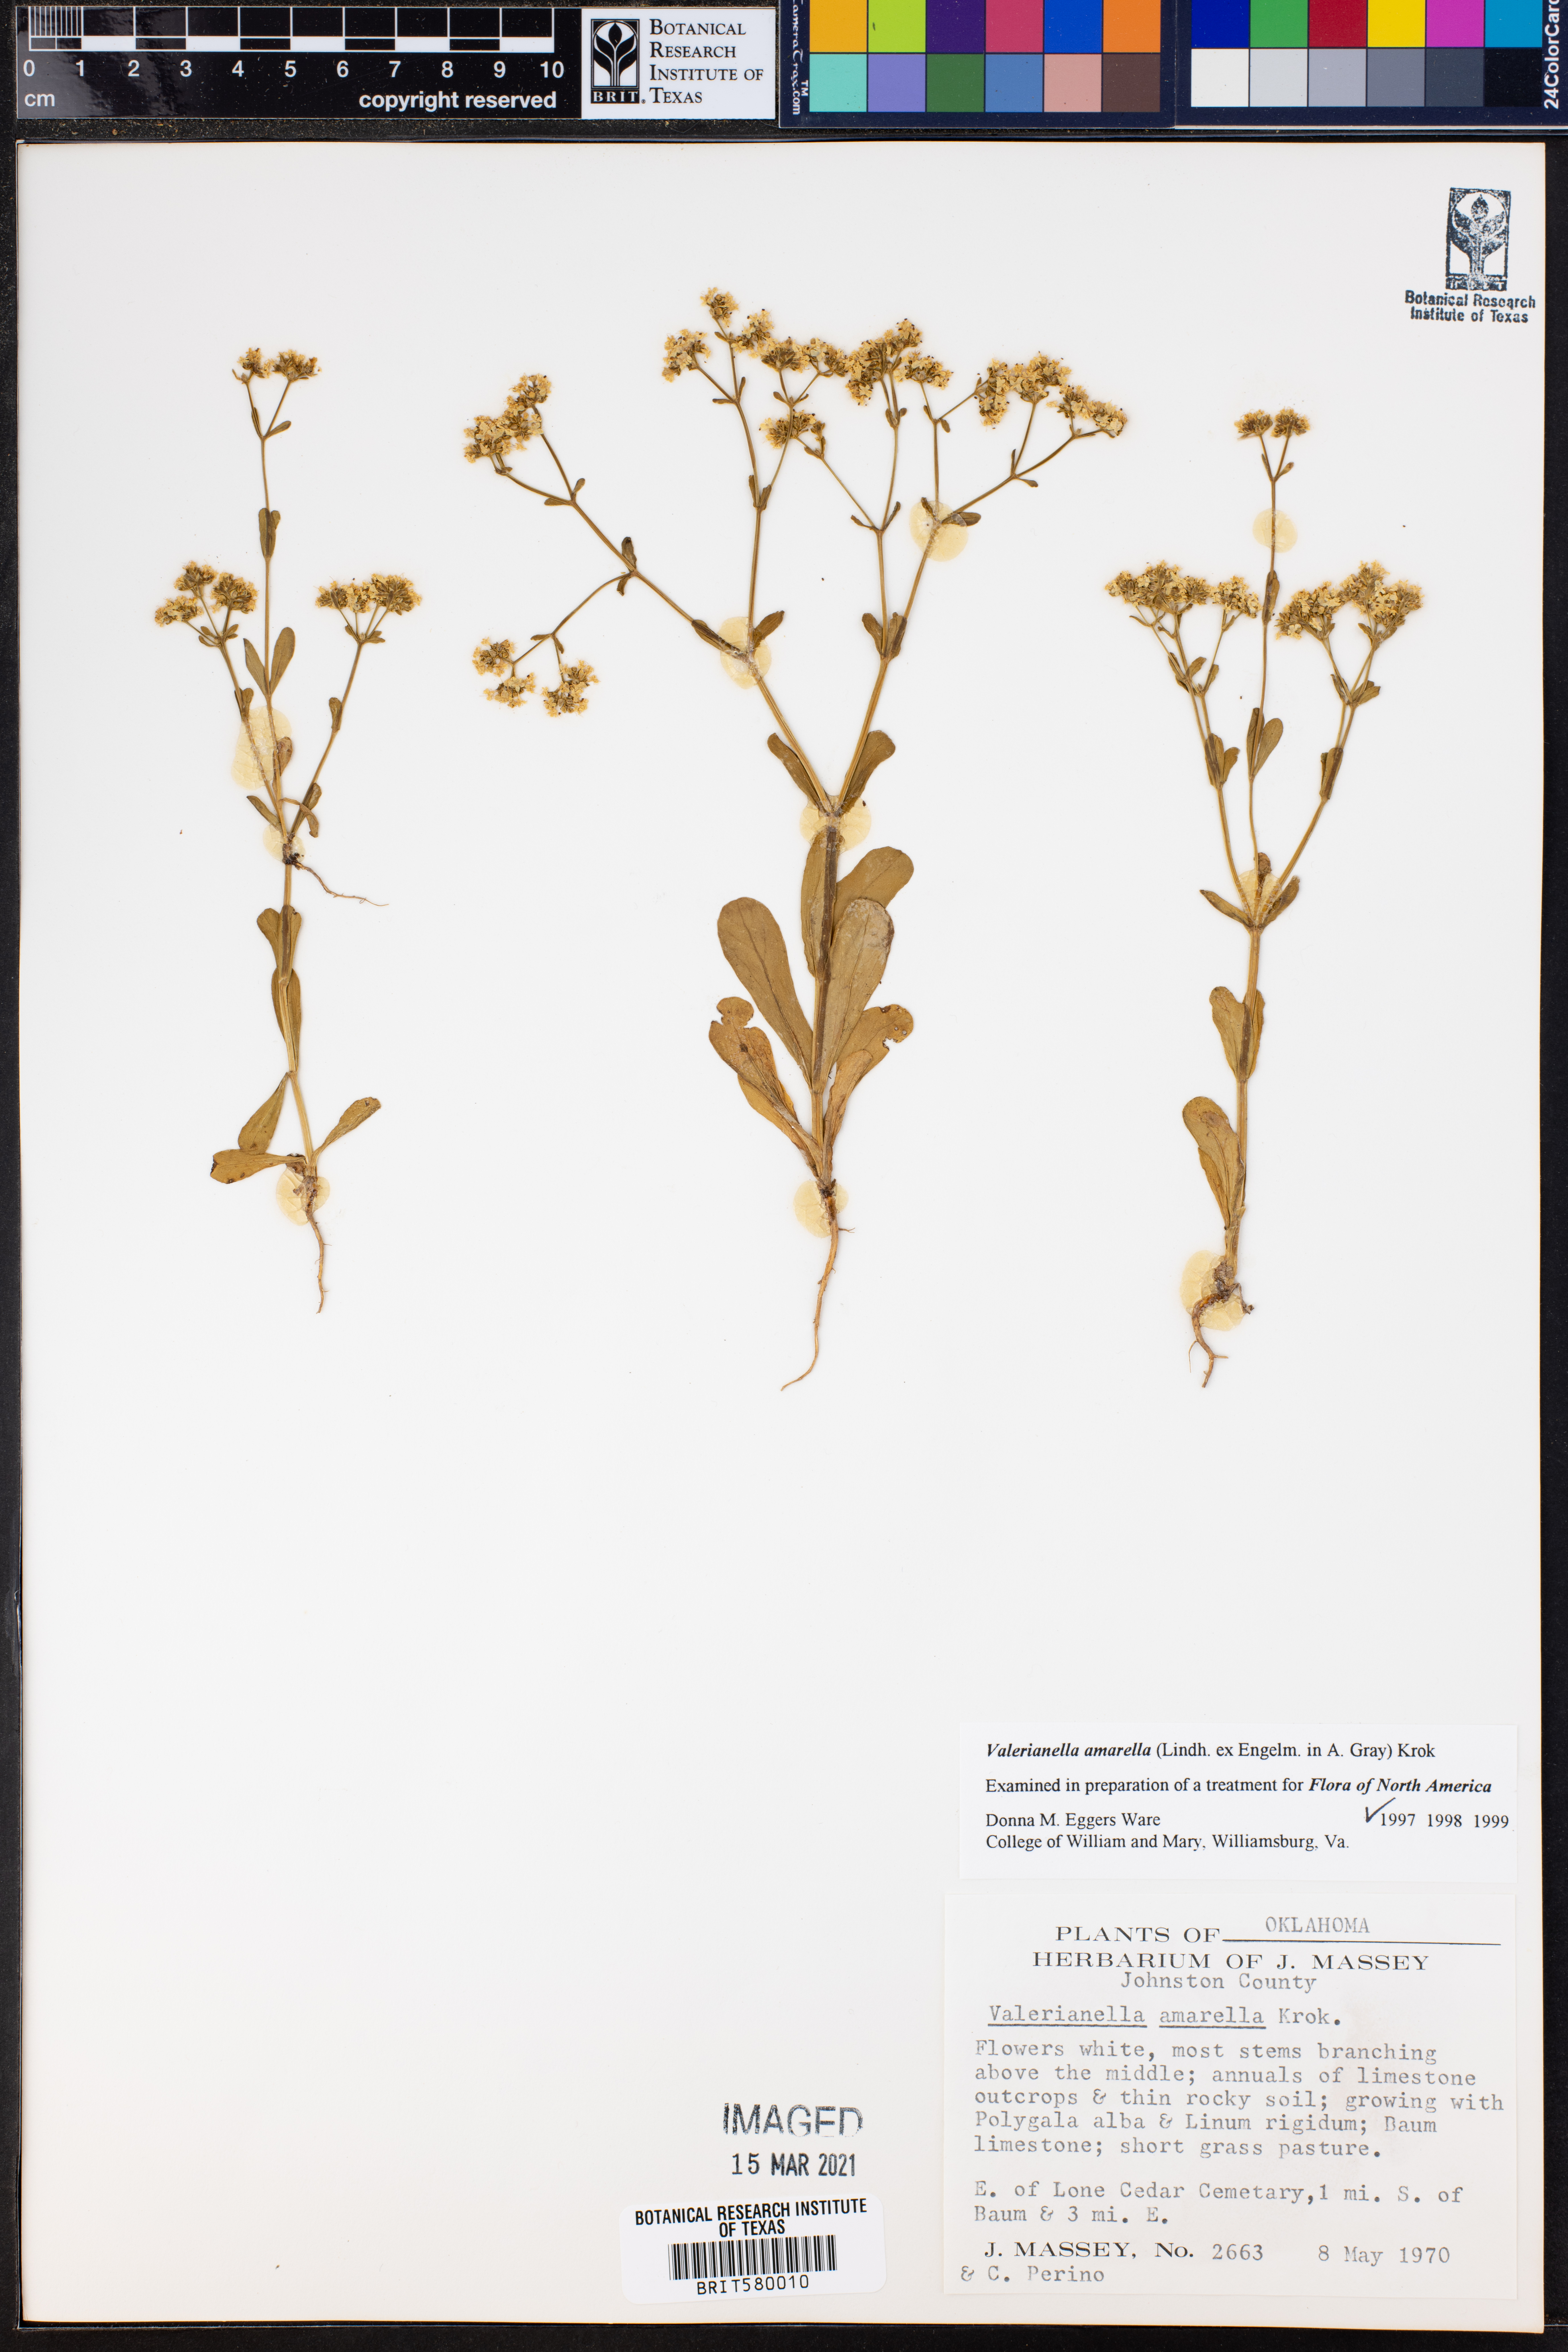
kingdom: Plantae
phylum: Tracheophyta
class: Magnoliopsida
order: Dipsacales
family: Caprifoliaceae
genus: Valerianella
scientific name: Valerianella amarella
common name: Hariy cornsalad
